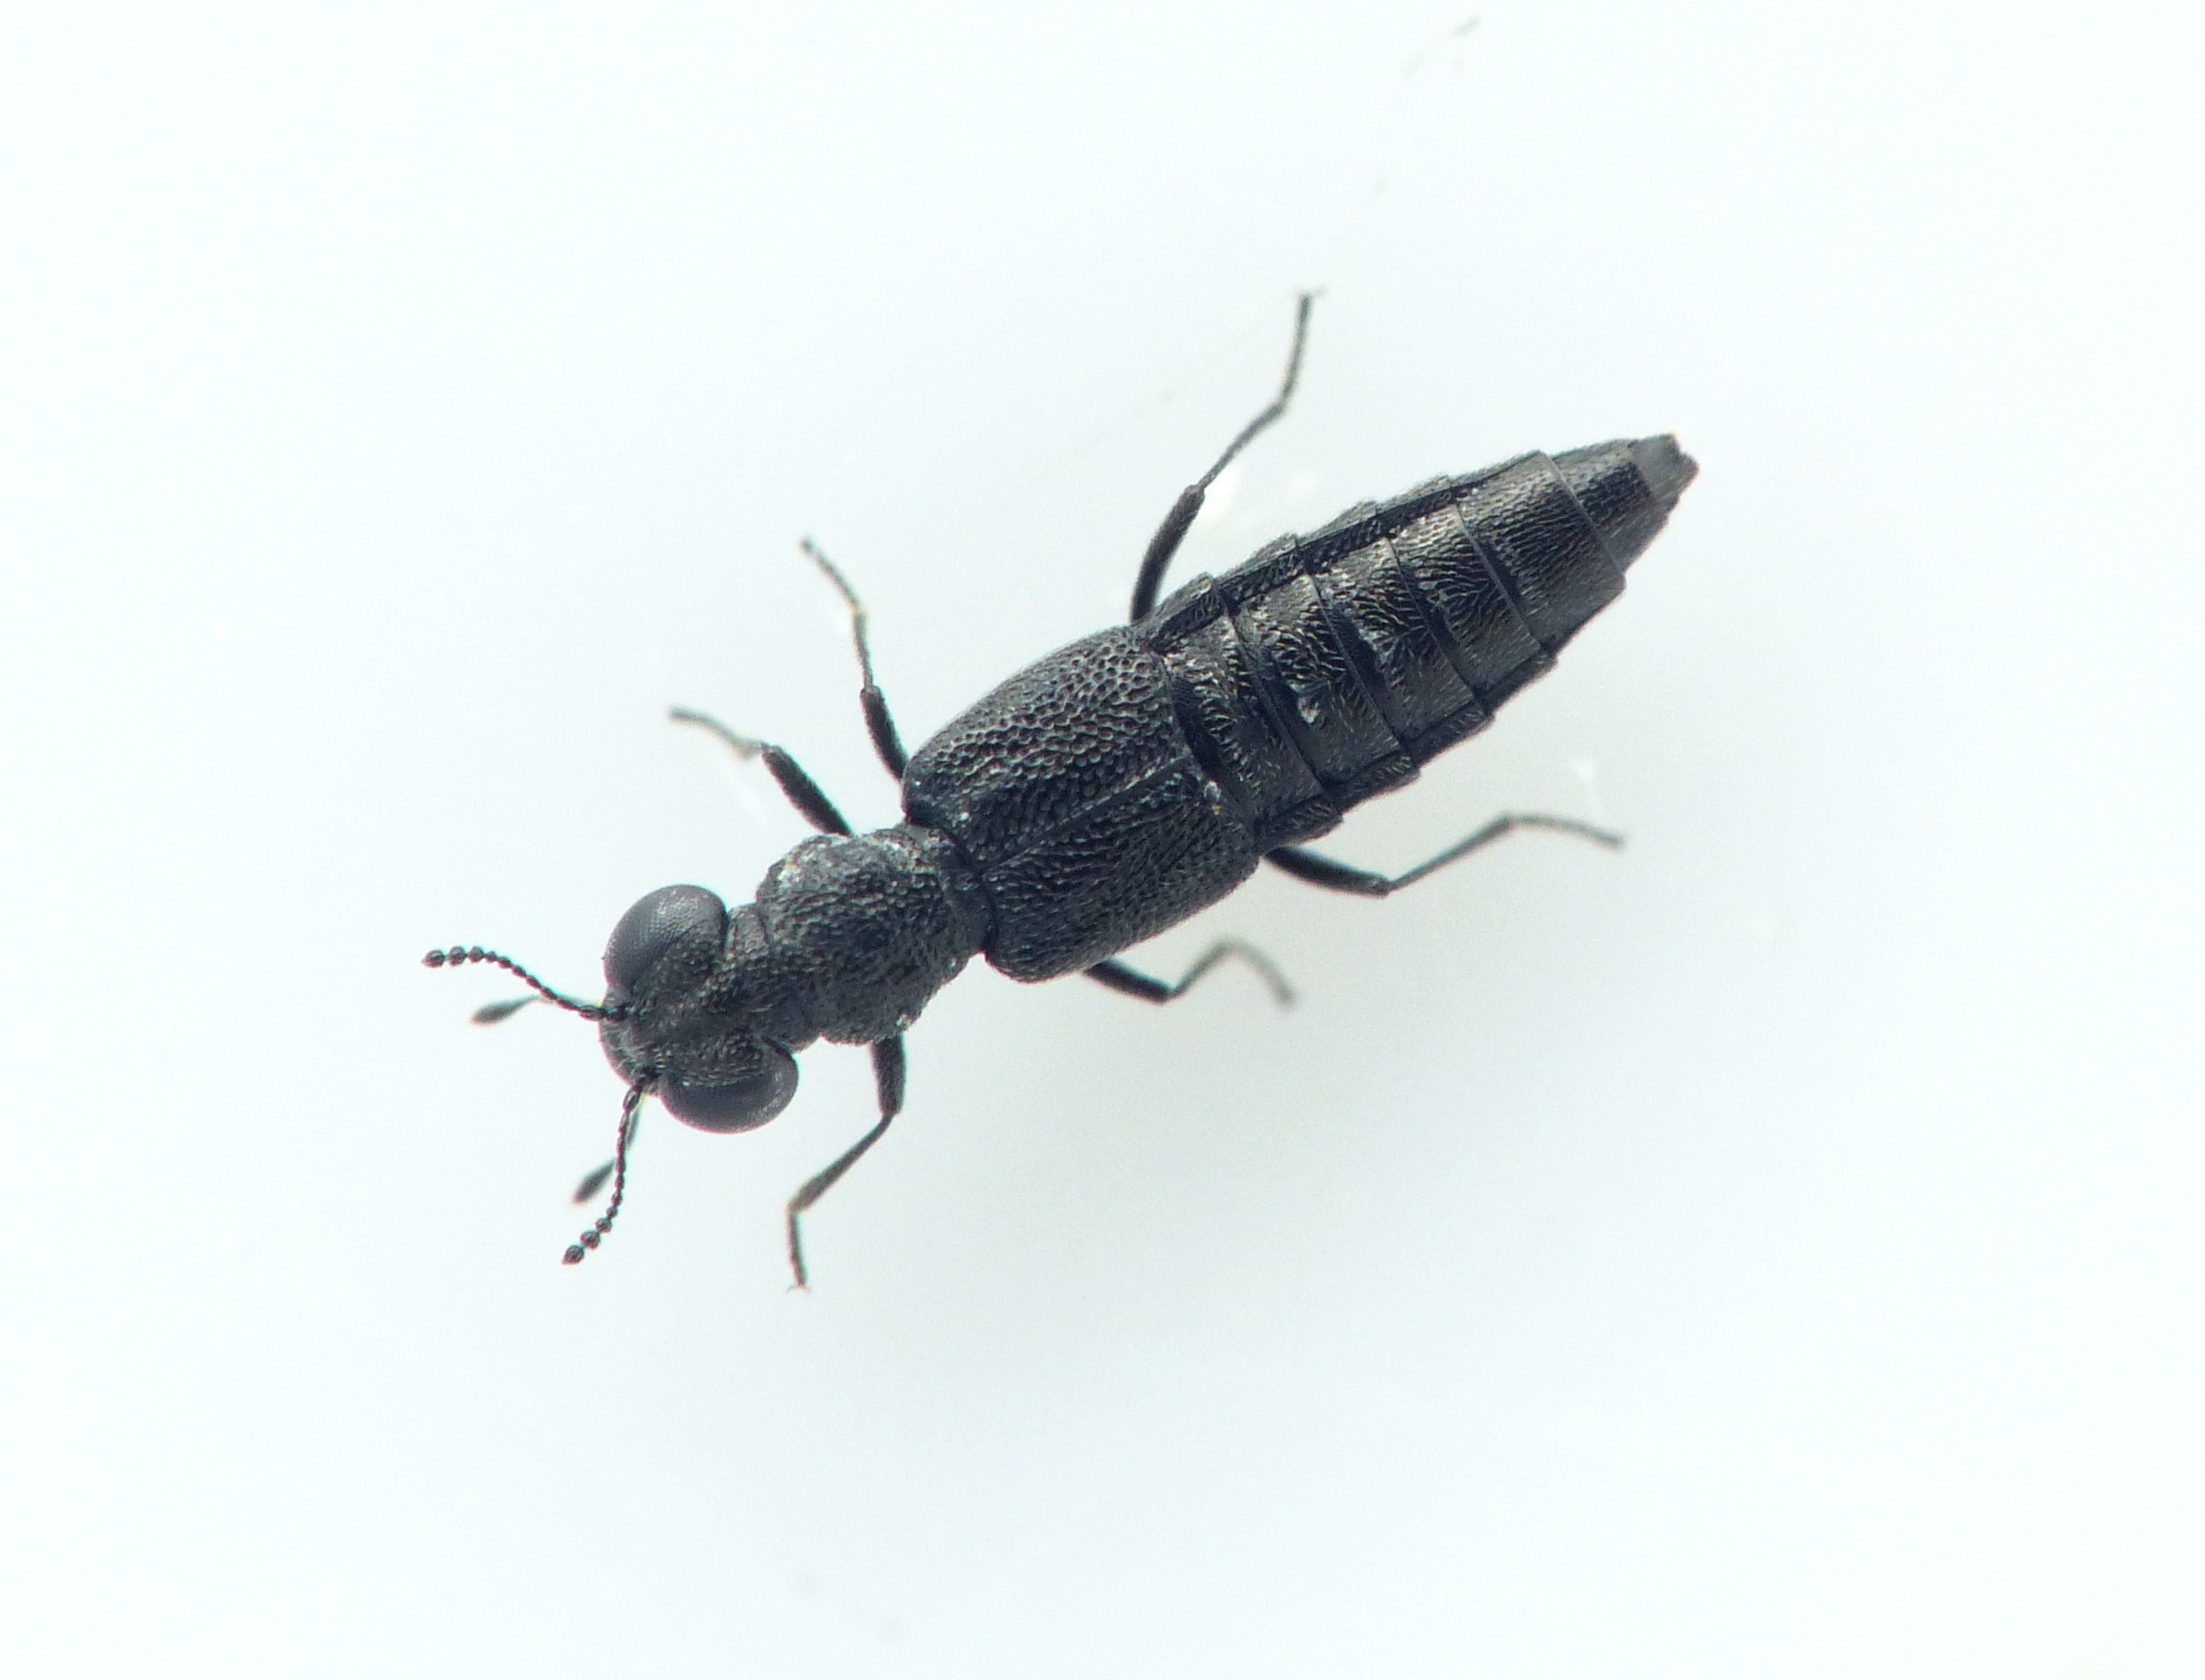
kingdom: Animalia
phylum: Arthropoda
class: Insecta
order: Coleoptera
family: Staphylinidae
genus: Stenus
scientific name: Stenus pusillus
